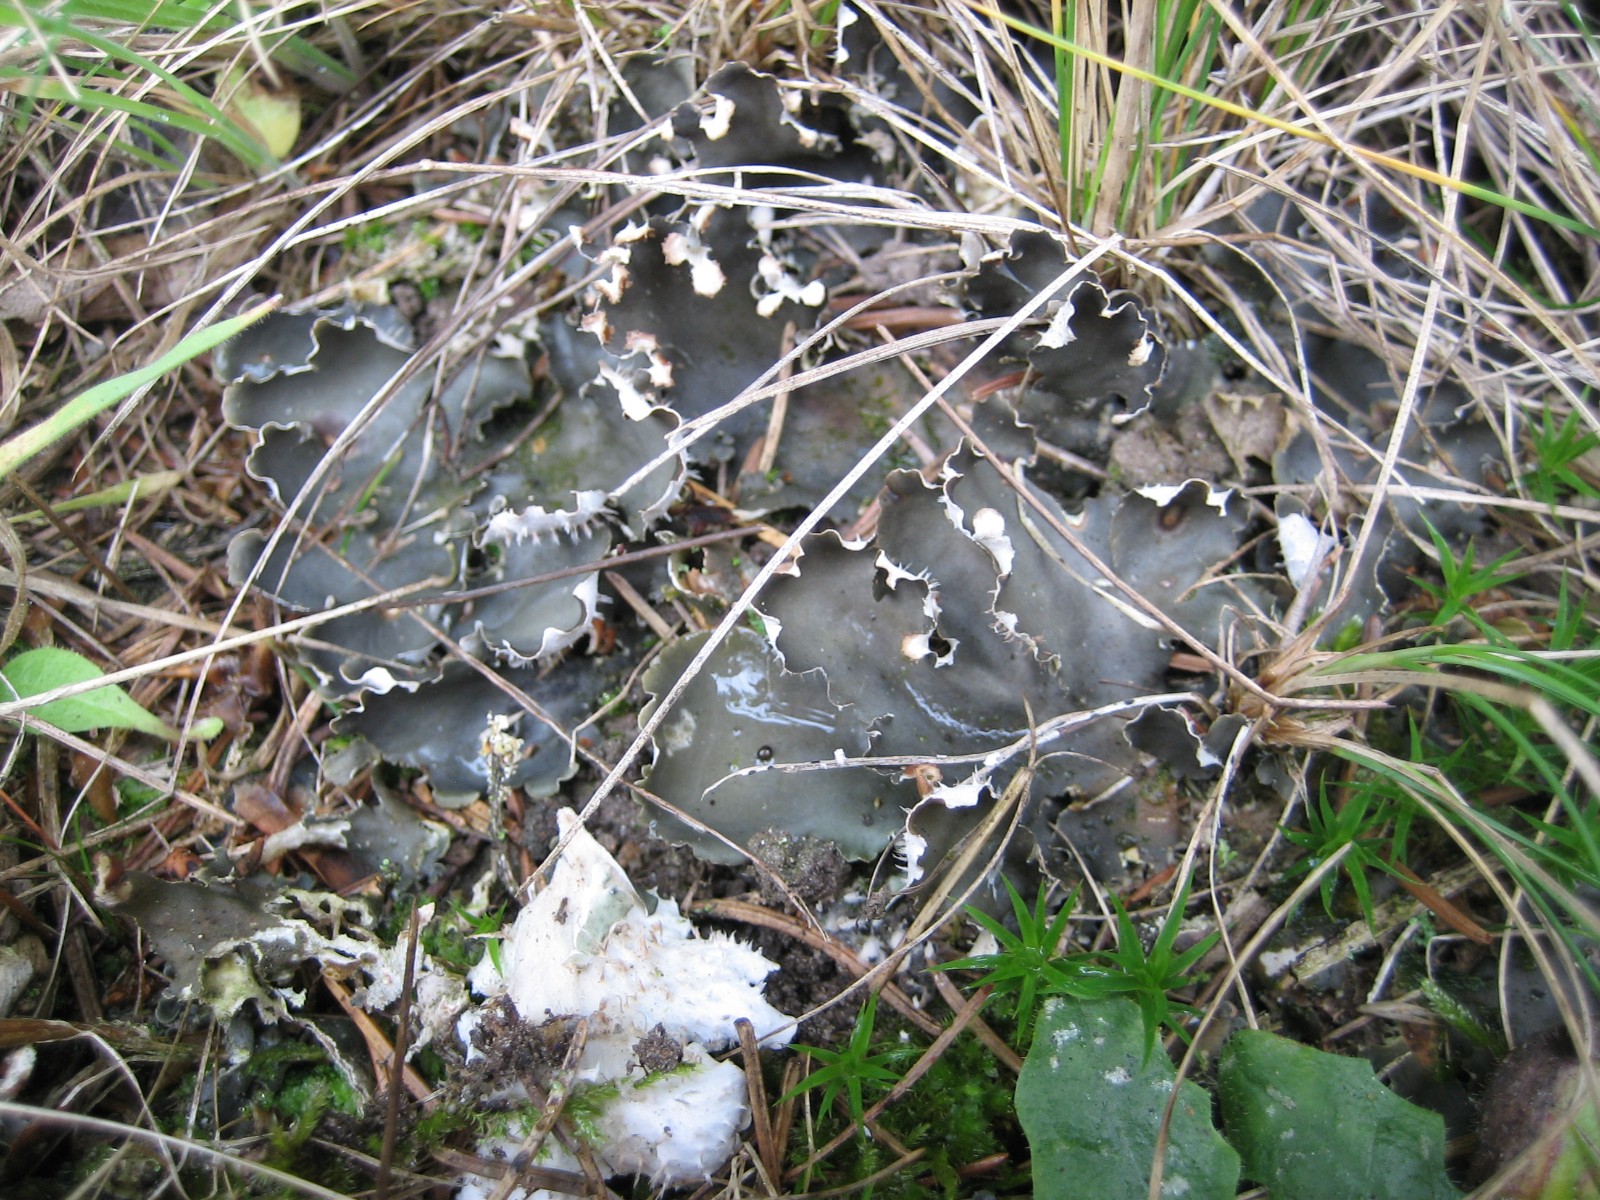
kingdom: Fungi
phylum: Ascomycota
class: Lecanoromycetes
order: Peltigerales
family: Peltigeraceae
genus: Peltigera
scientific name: Peltigera hymenina
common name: hinde-skjoldlav
